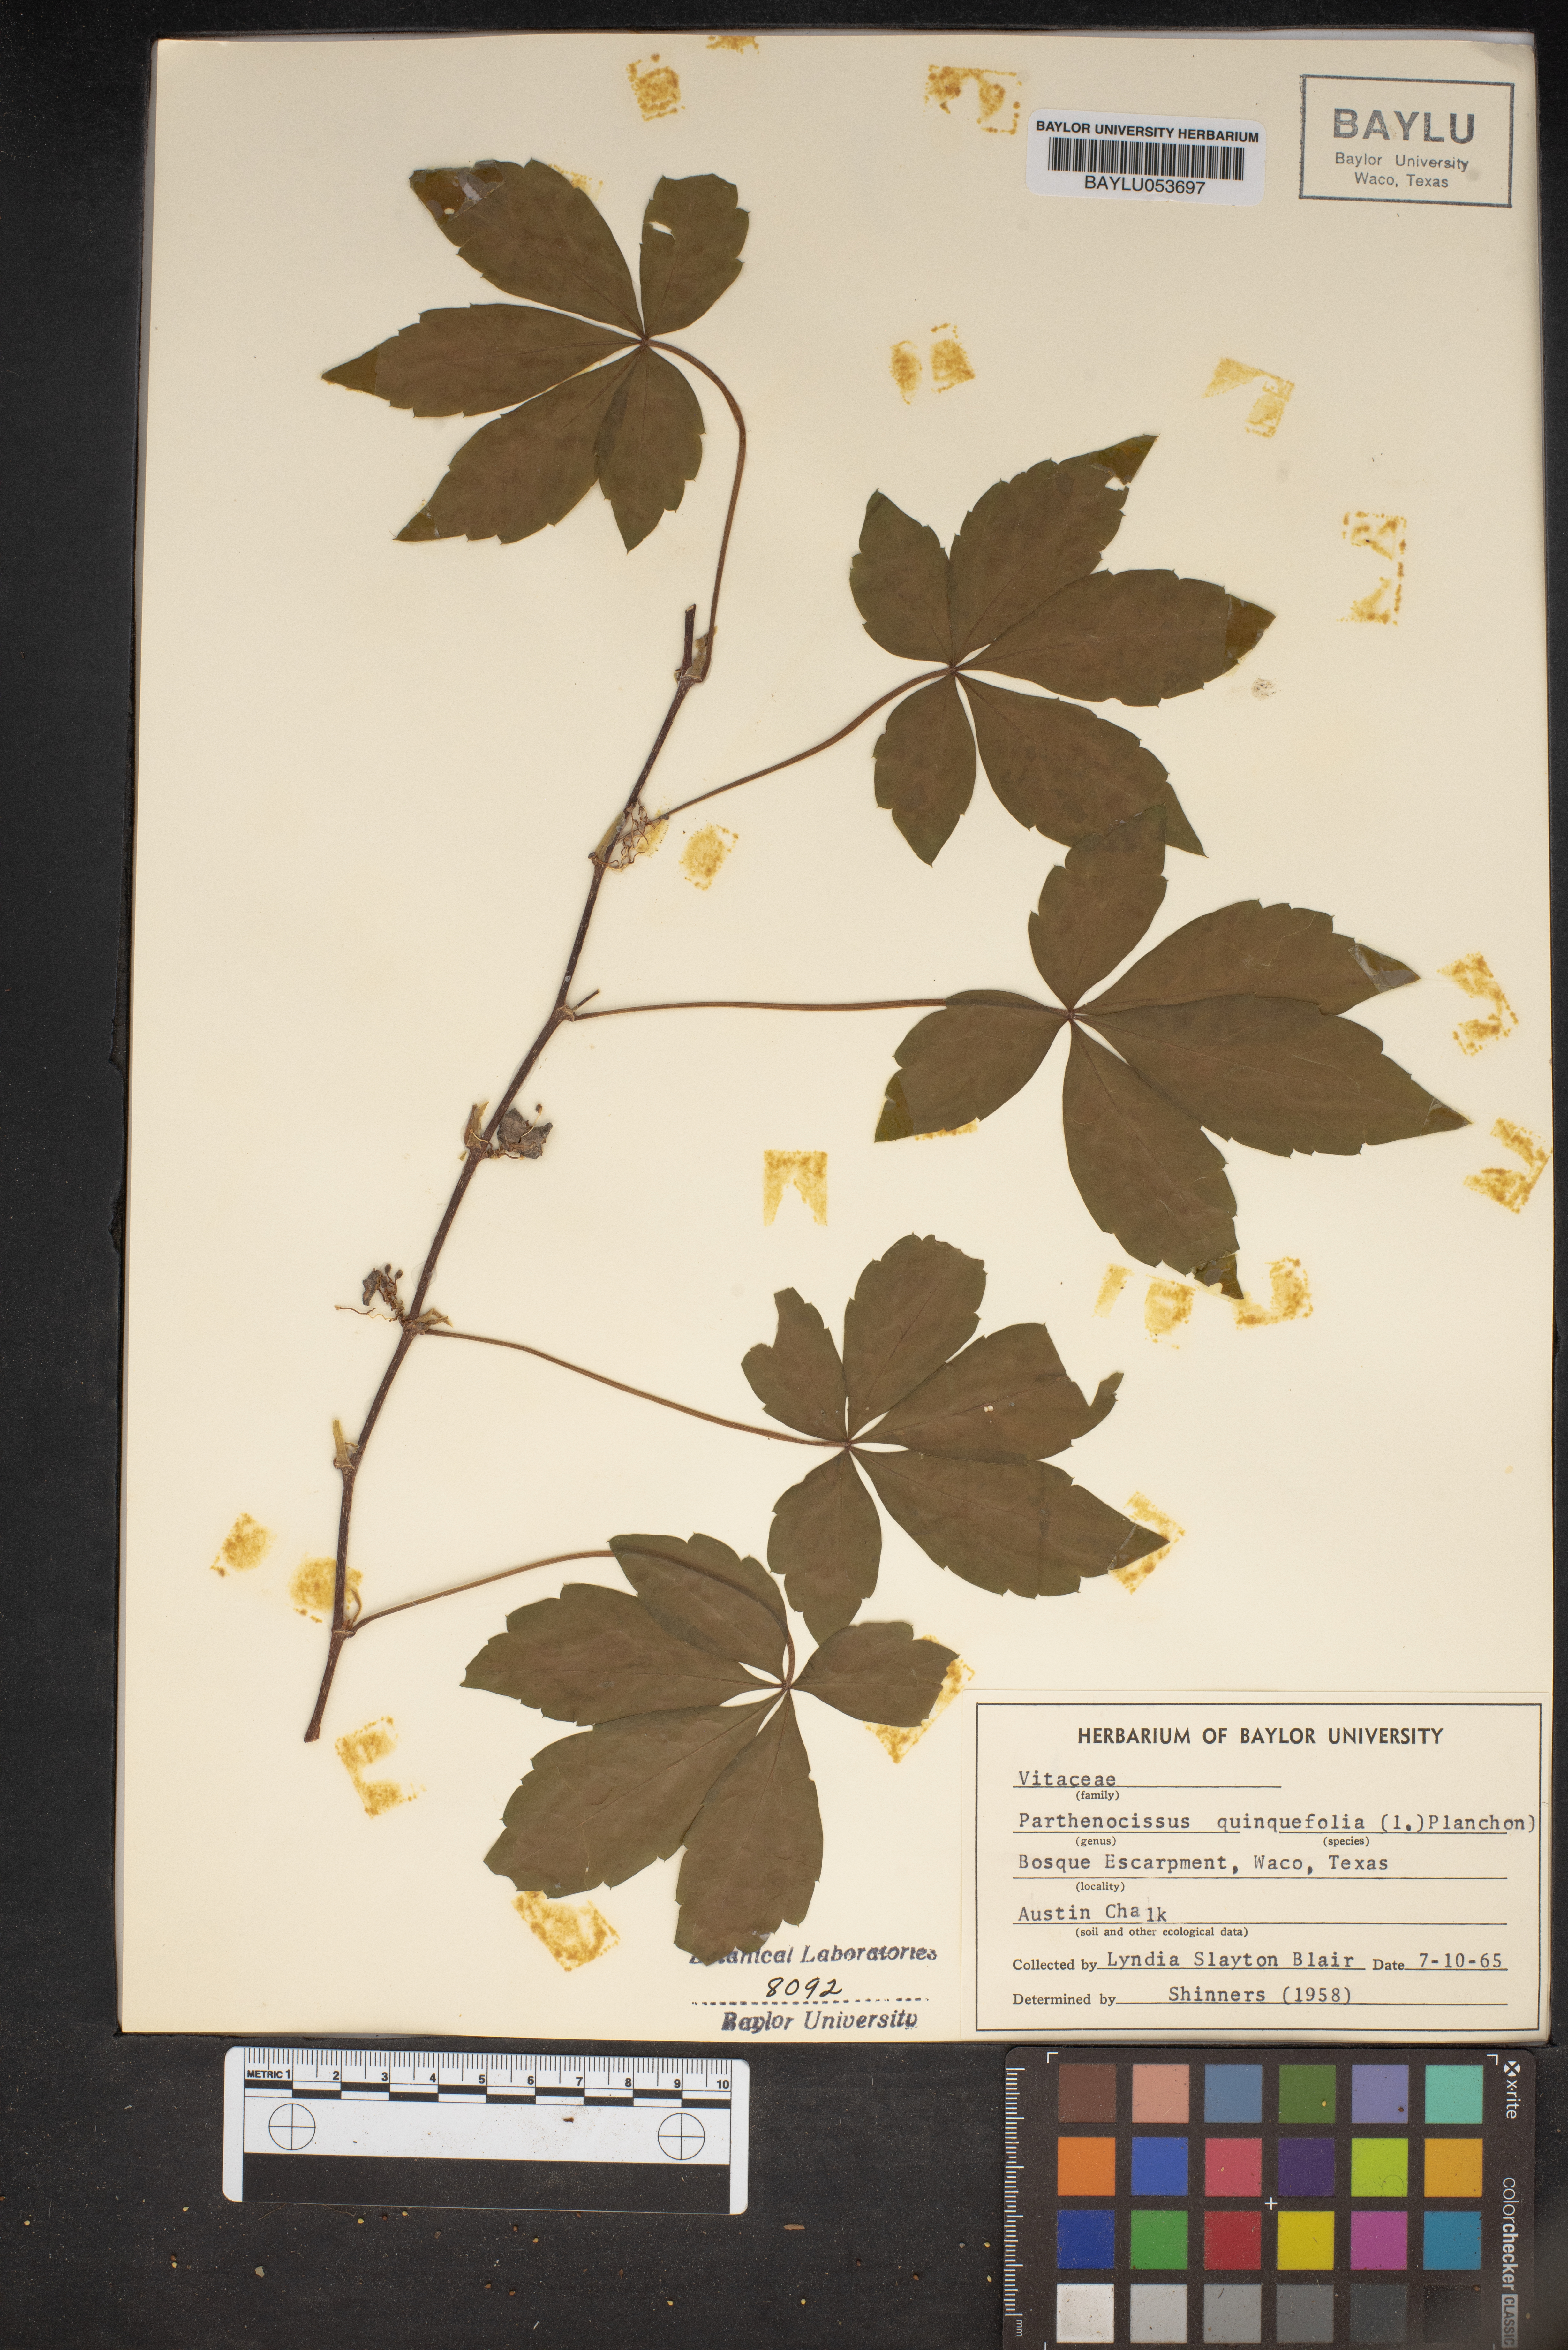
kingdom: Plantae
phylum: Tracheophyta
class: Magnoliopsida
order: Vitales
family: Vitaceae
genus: Parthenocissus
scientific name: Parthenocissus quinquefolia
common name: Virginia-creeper
